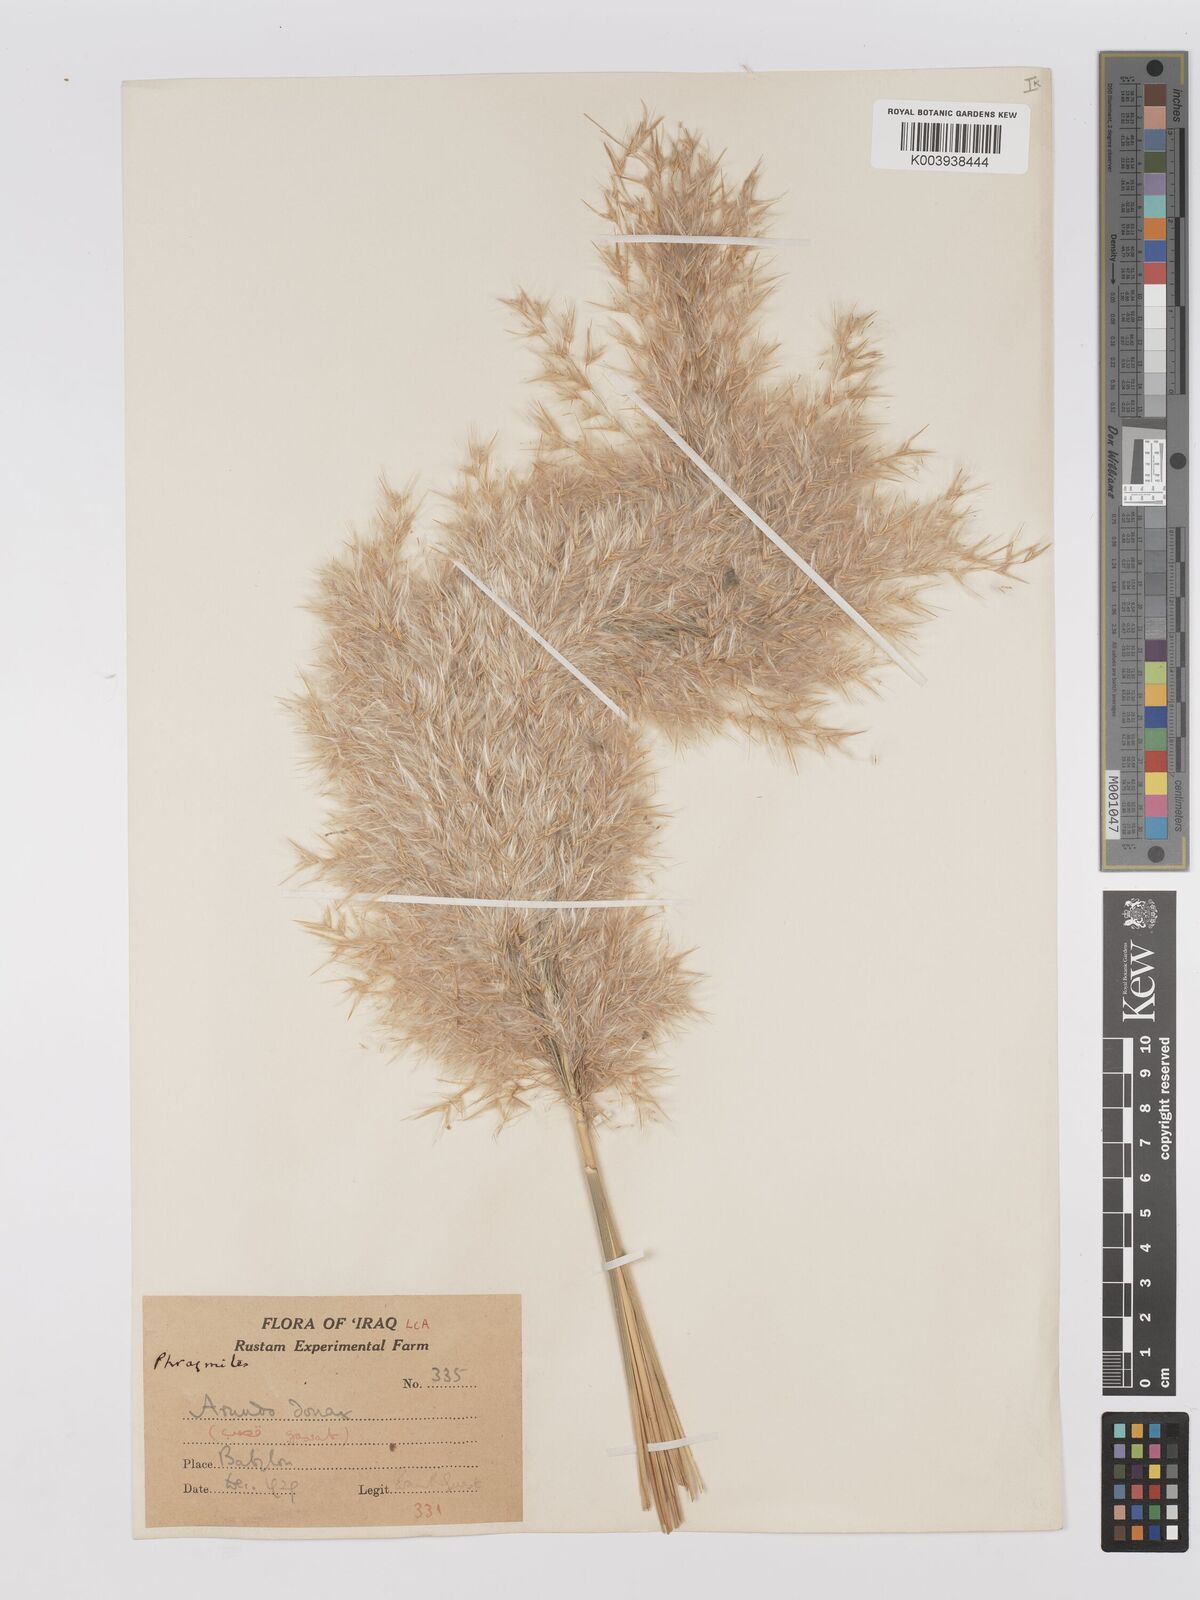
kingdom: Plantae
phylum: Tracheophyta
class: Liliopsida
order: Poales
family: Poaceae
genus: Phragmites
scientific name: Phragmites australis
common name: Common reed
